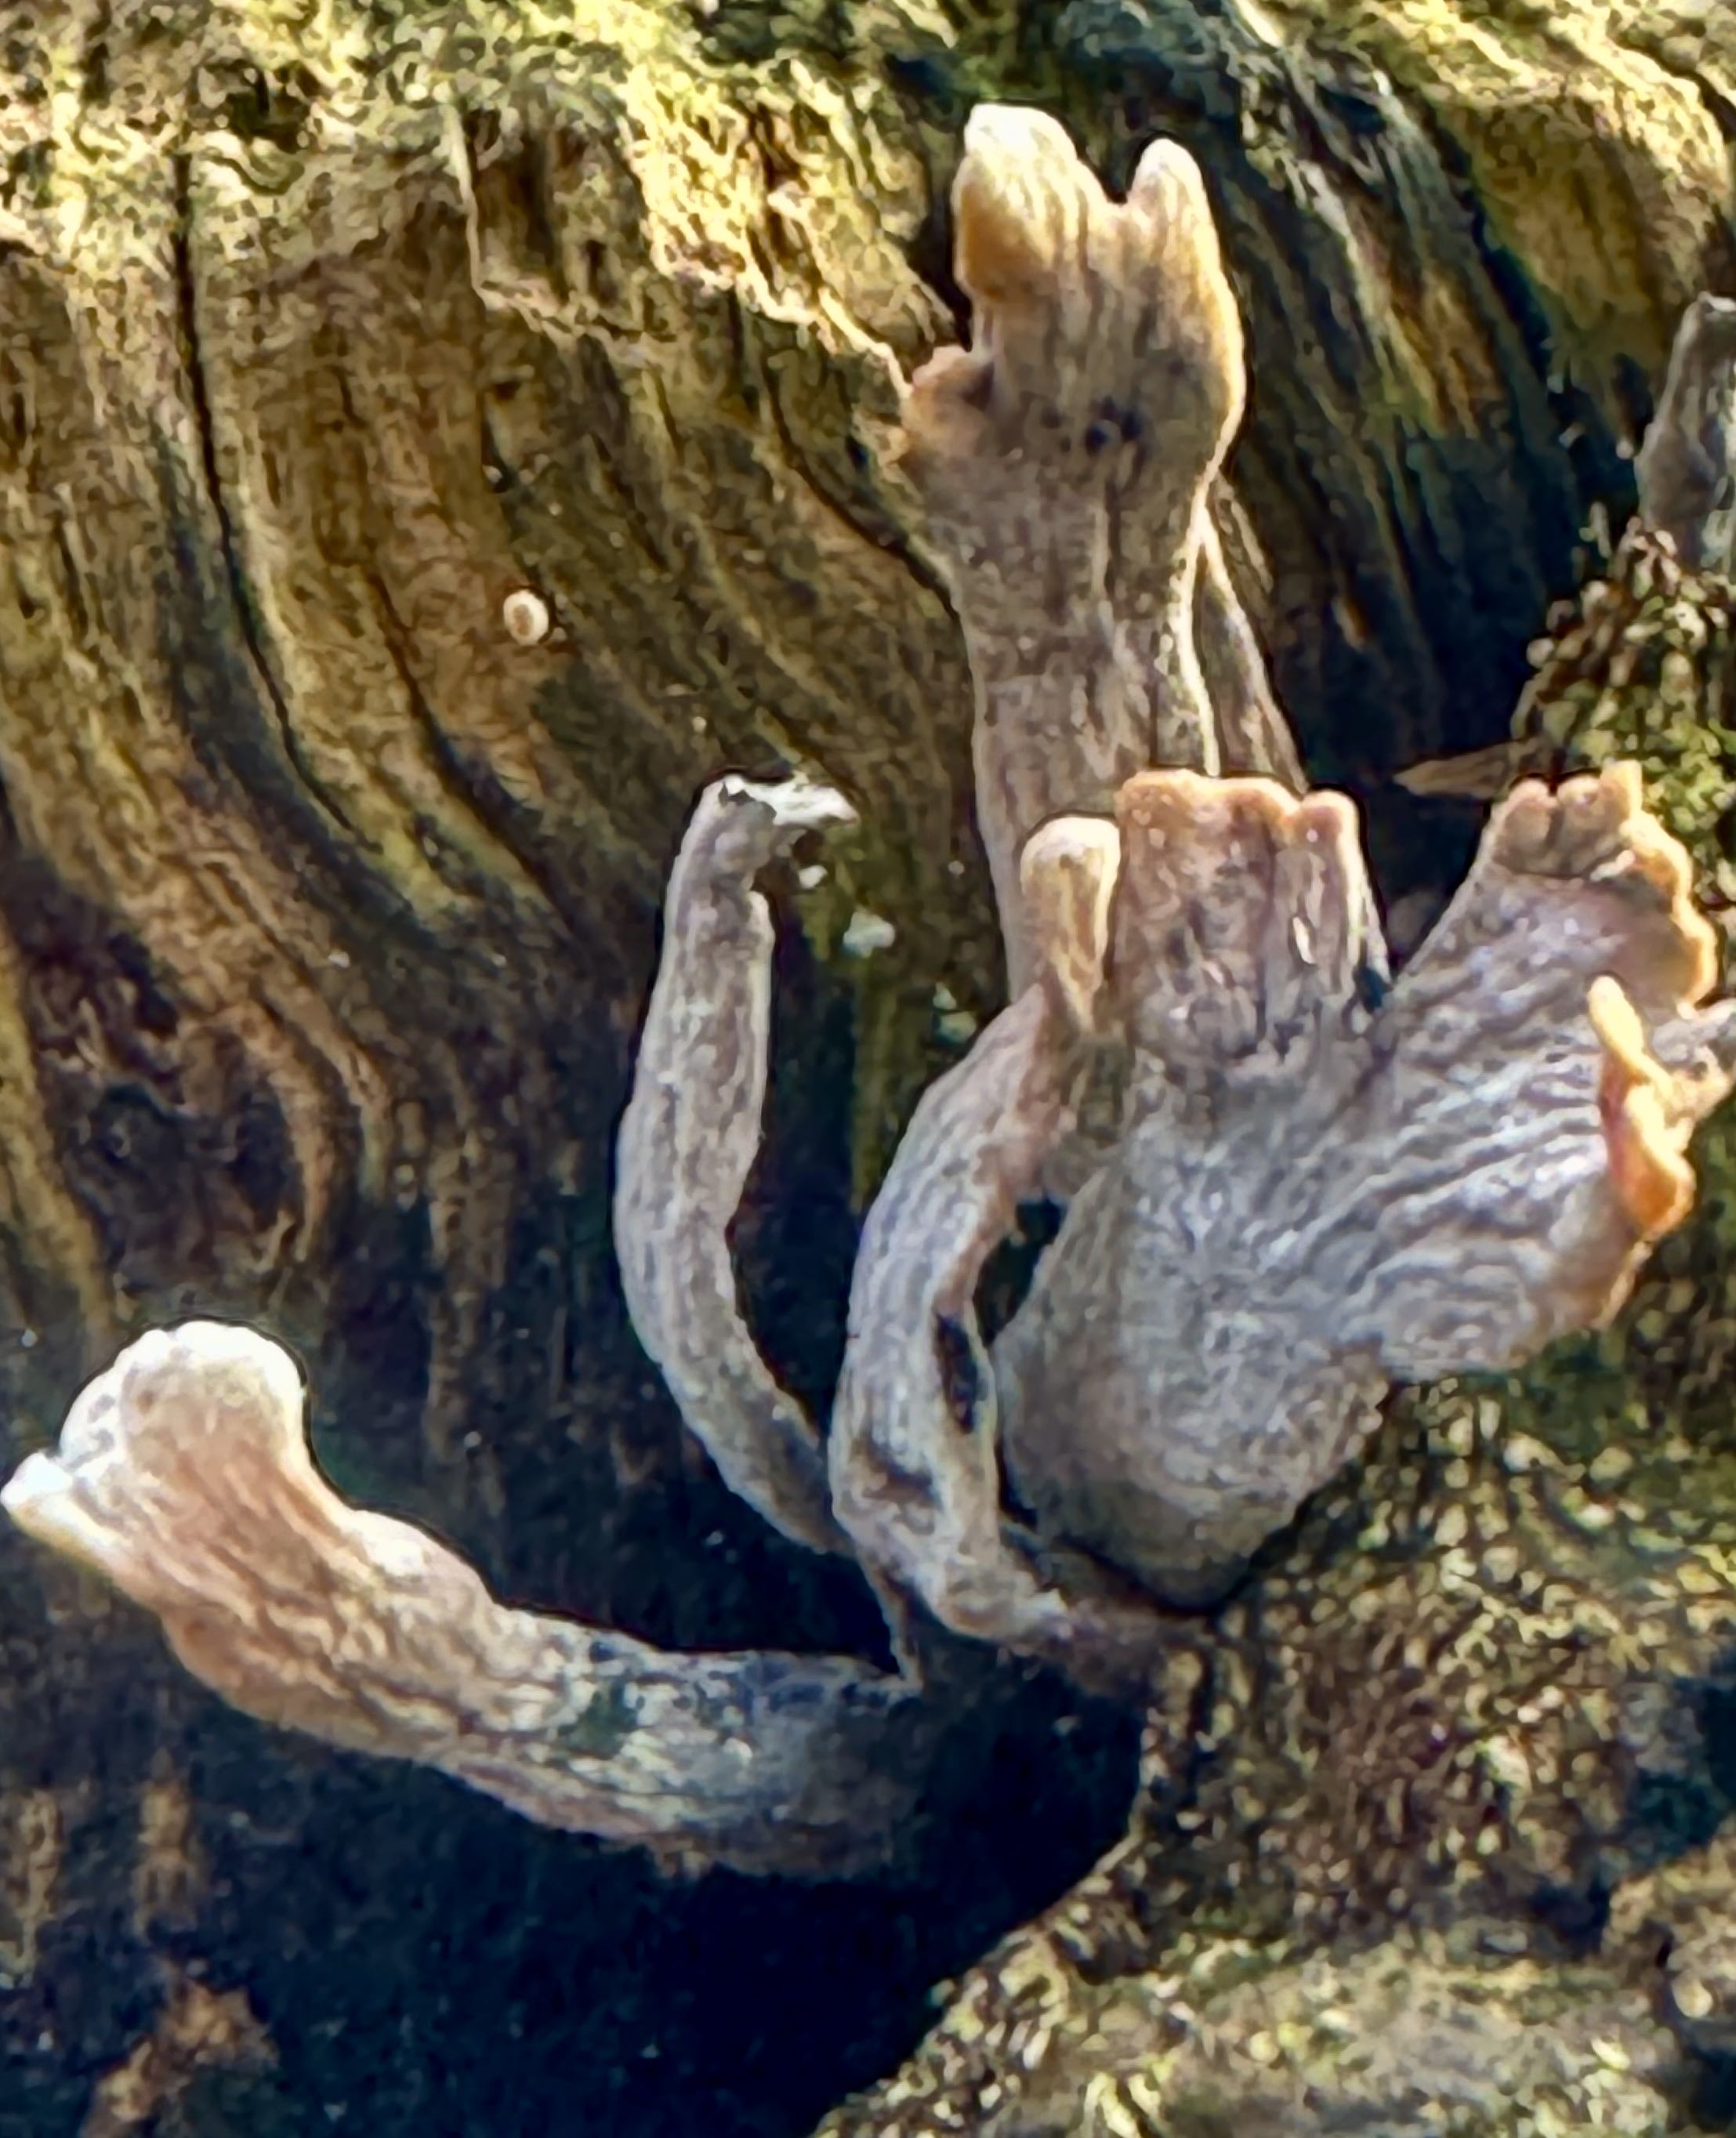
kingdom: Fungi
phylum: Ascomycota
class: Sordariomycetes
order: Xylariales
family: Xylariaceae
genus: Xylaria
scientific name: Xylaria hypoxylon
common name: grenet stødsvamp
